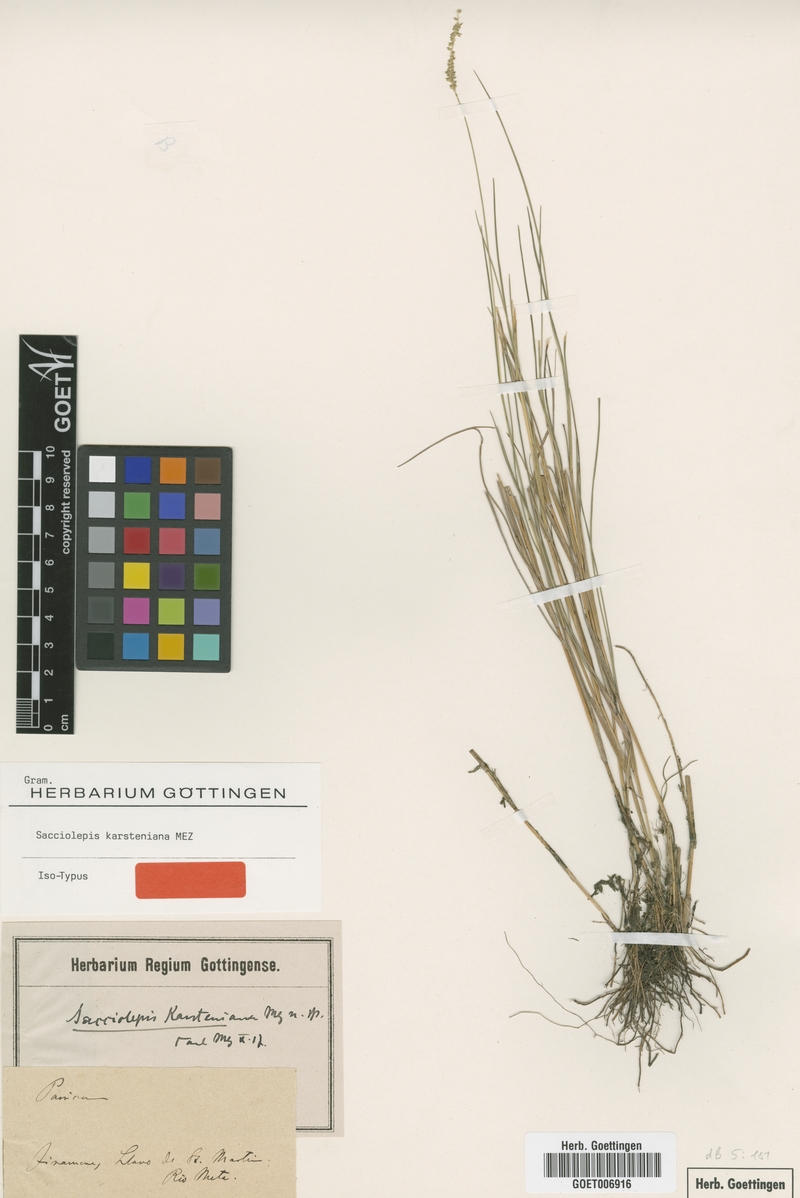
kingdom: Plantae
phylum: Tracheophyta
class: Liliopsida
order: Poales
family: Poaceae
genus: Sacciolepis
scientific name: Sacciolepis angustissima
